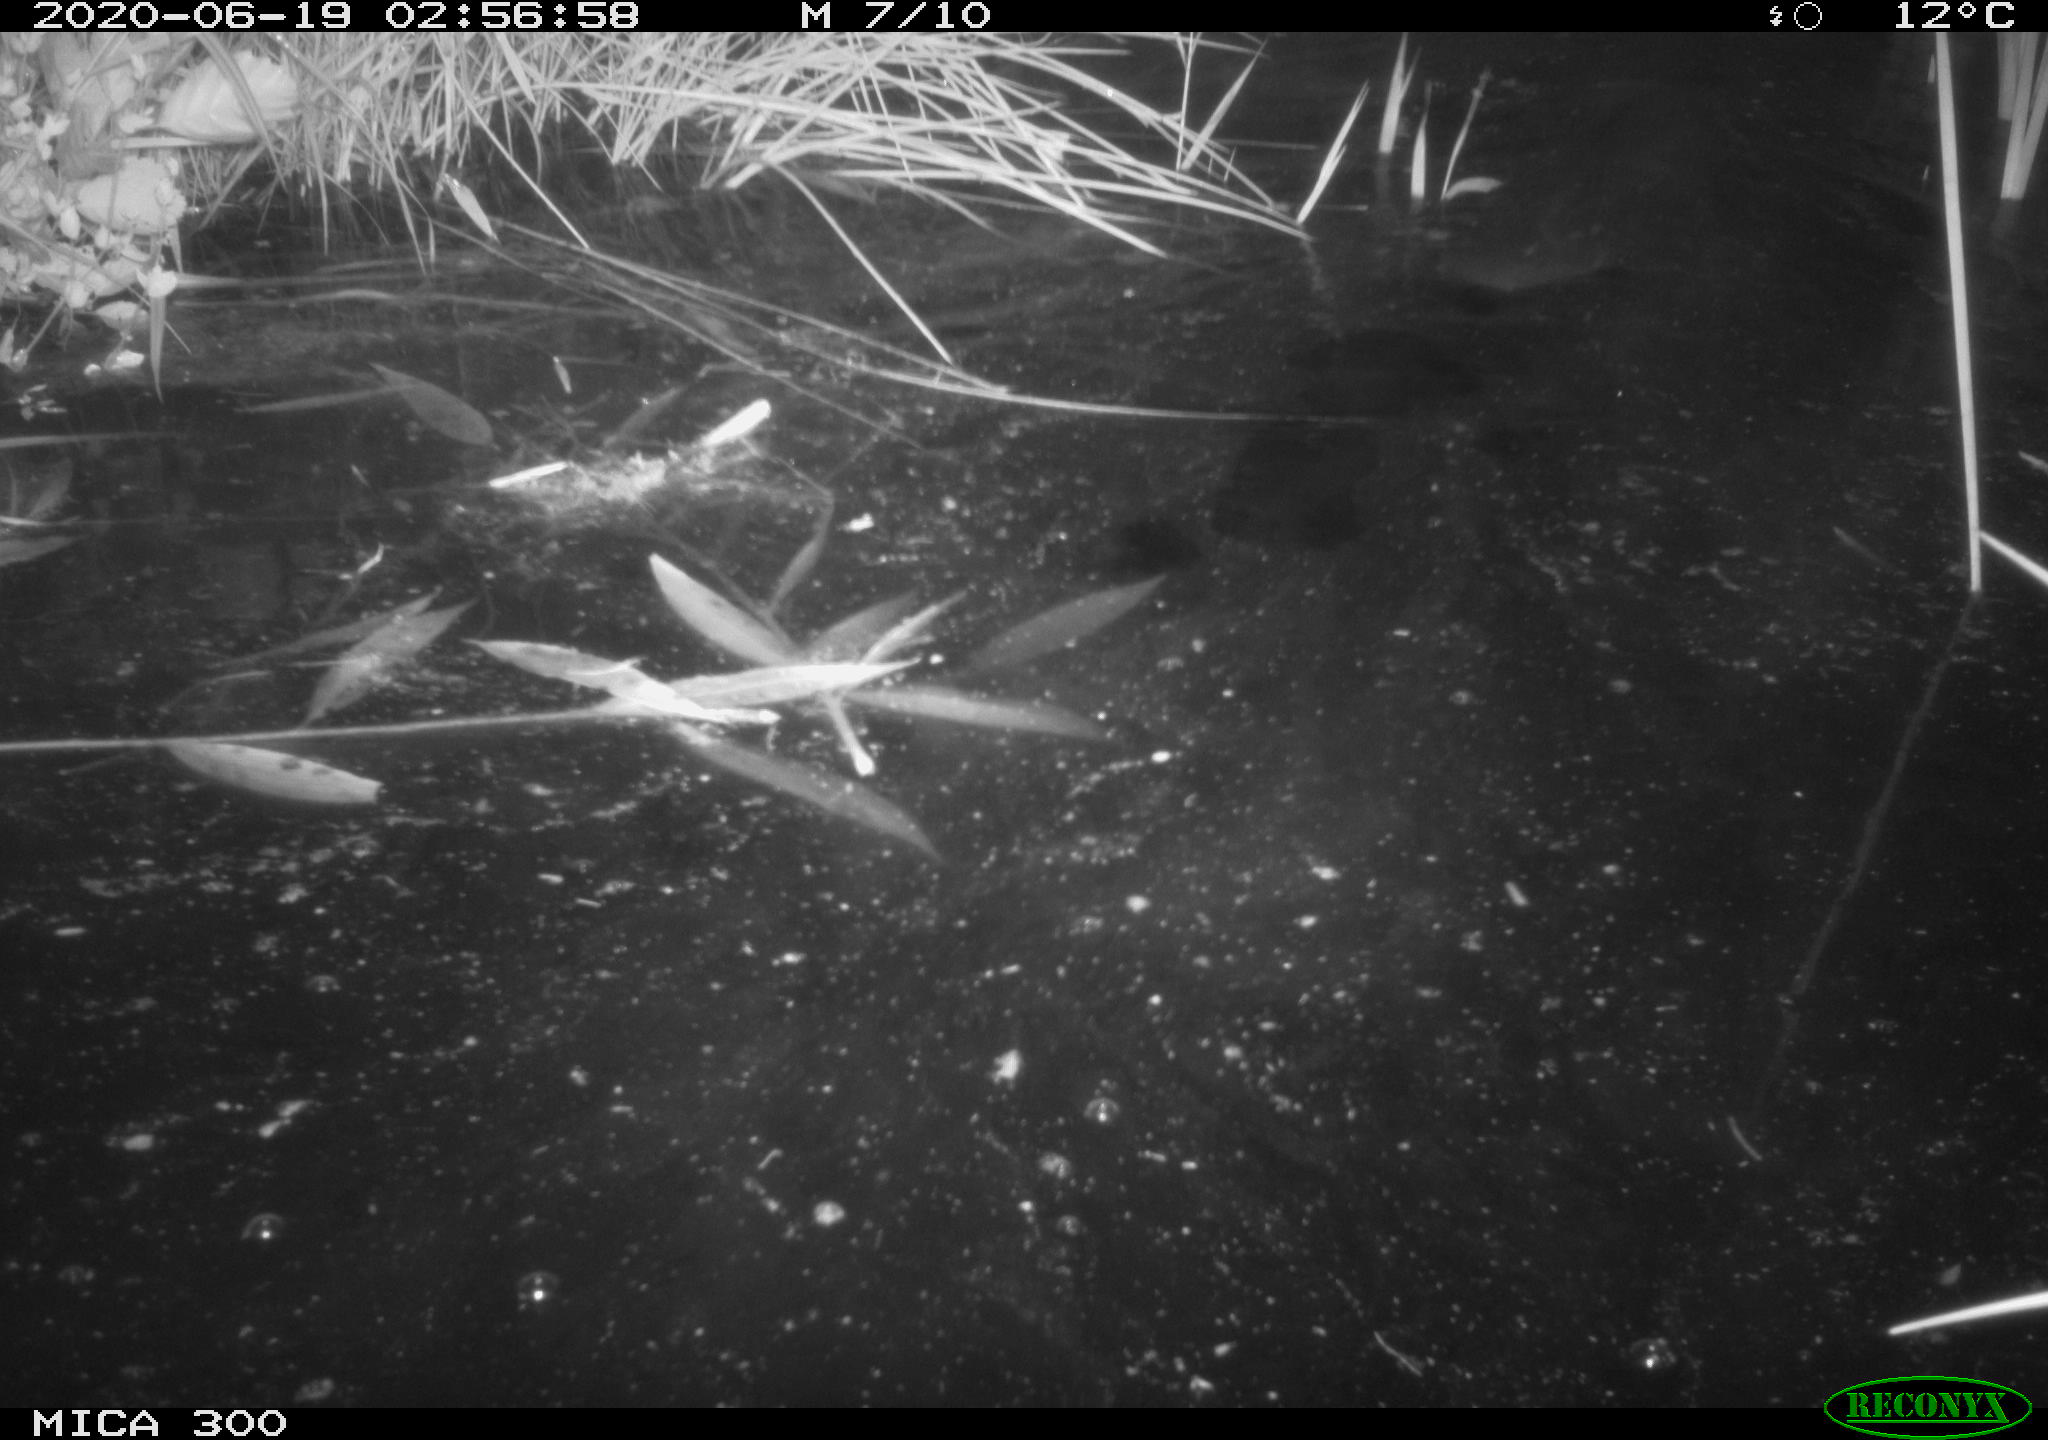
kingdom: Animalia
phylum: Chordata
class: Mammalia
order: Rodentia
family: Castoridae
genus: Castor
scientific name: Castor fiber
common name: Eurasian beaver
